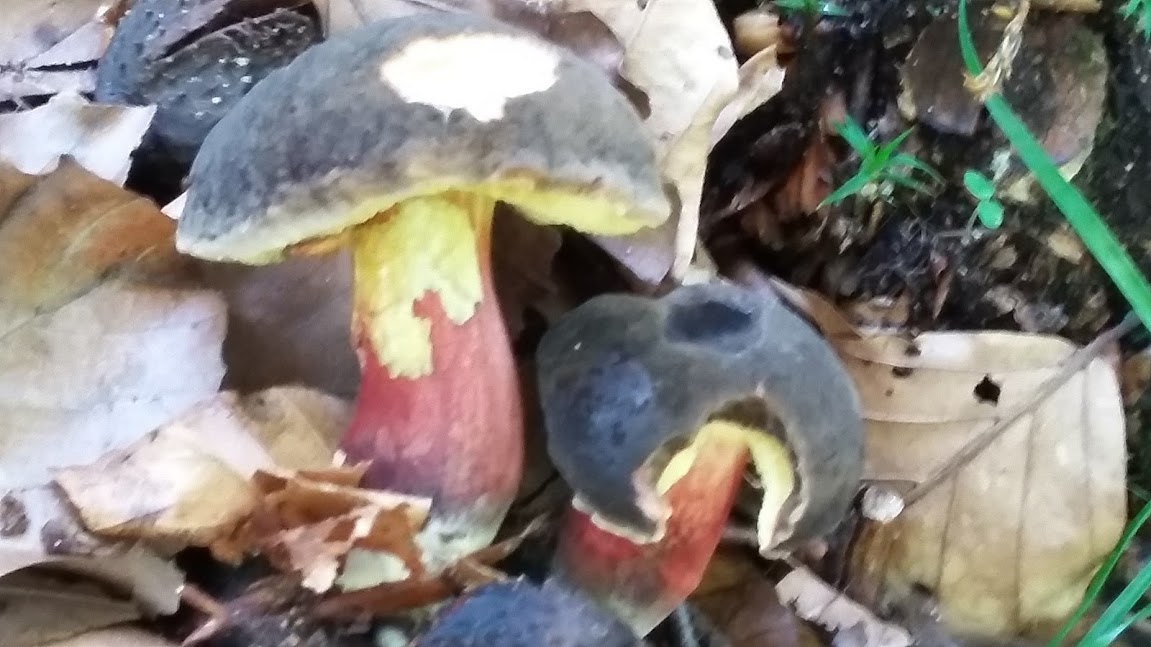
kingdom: Fungi
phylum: Basidiomycota
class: Agaricomycetes
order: Boletales
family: Boletaceae
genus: Xerocomellus
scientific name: Xerocomellus pruinatus
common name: dugget rørhat
